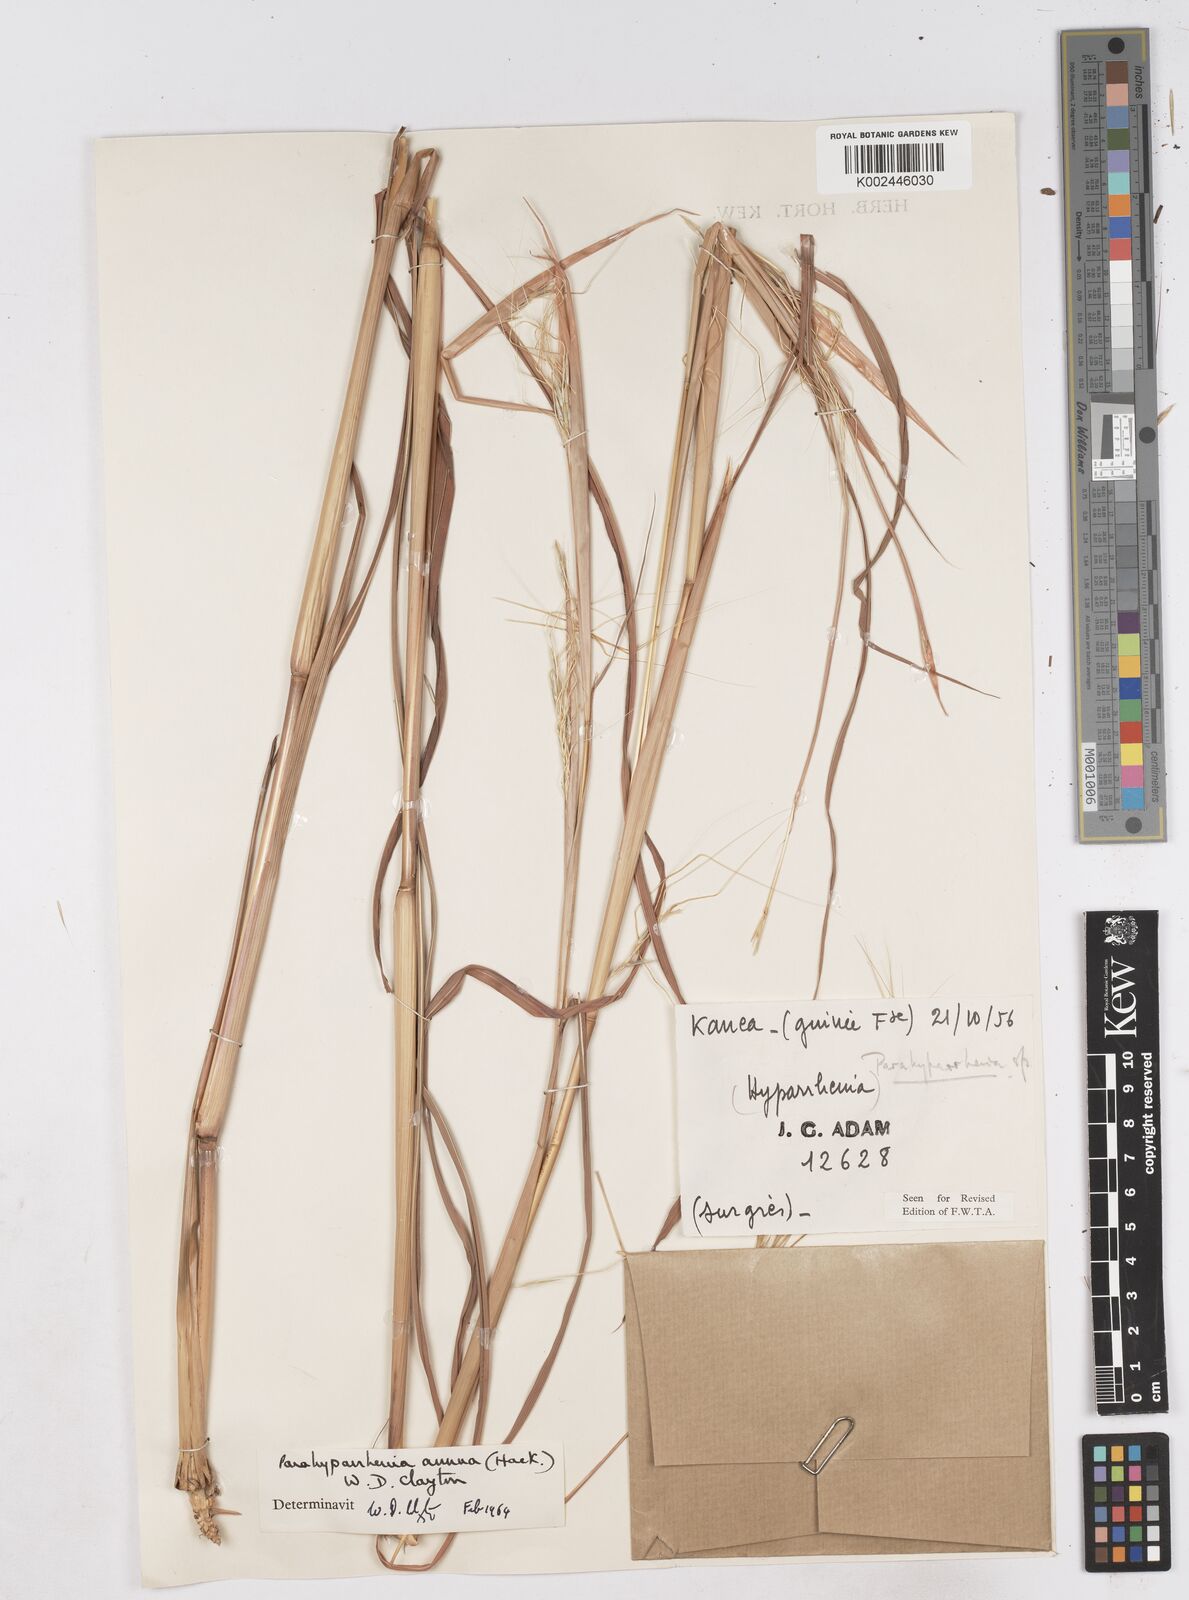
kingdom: Plantae
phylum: Tracheophyta
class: Liliopsida
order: Poales
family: Poaceae
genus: Parahyparrhenia
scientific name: Parahyparrhenia annua
